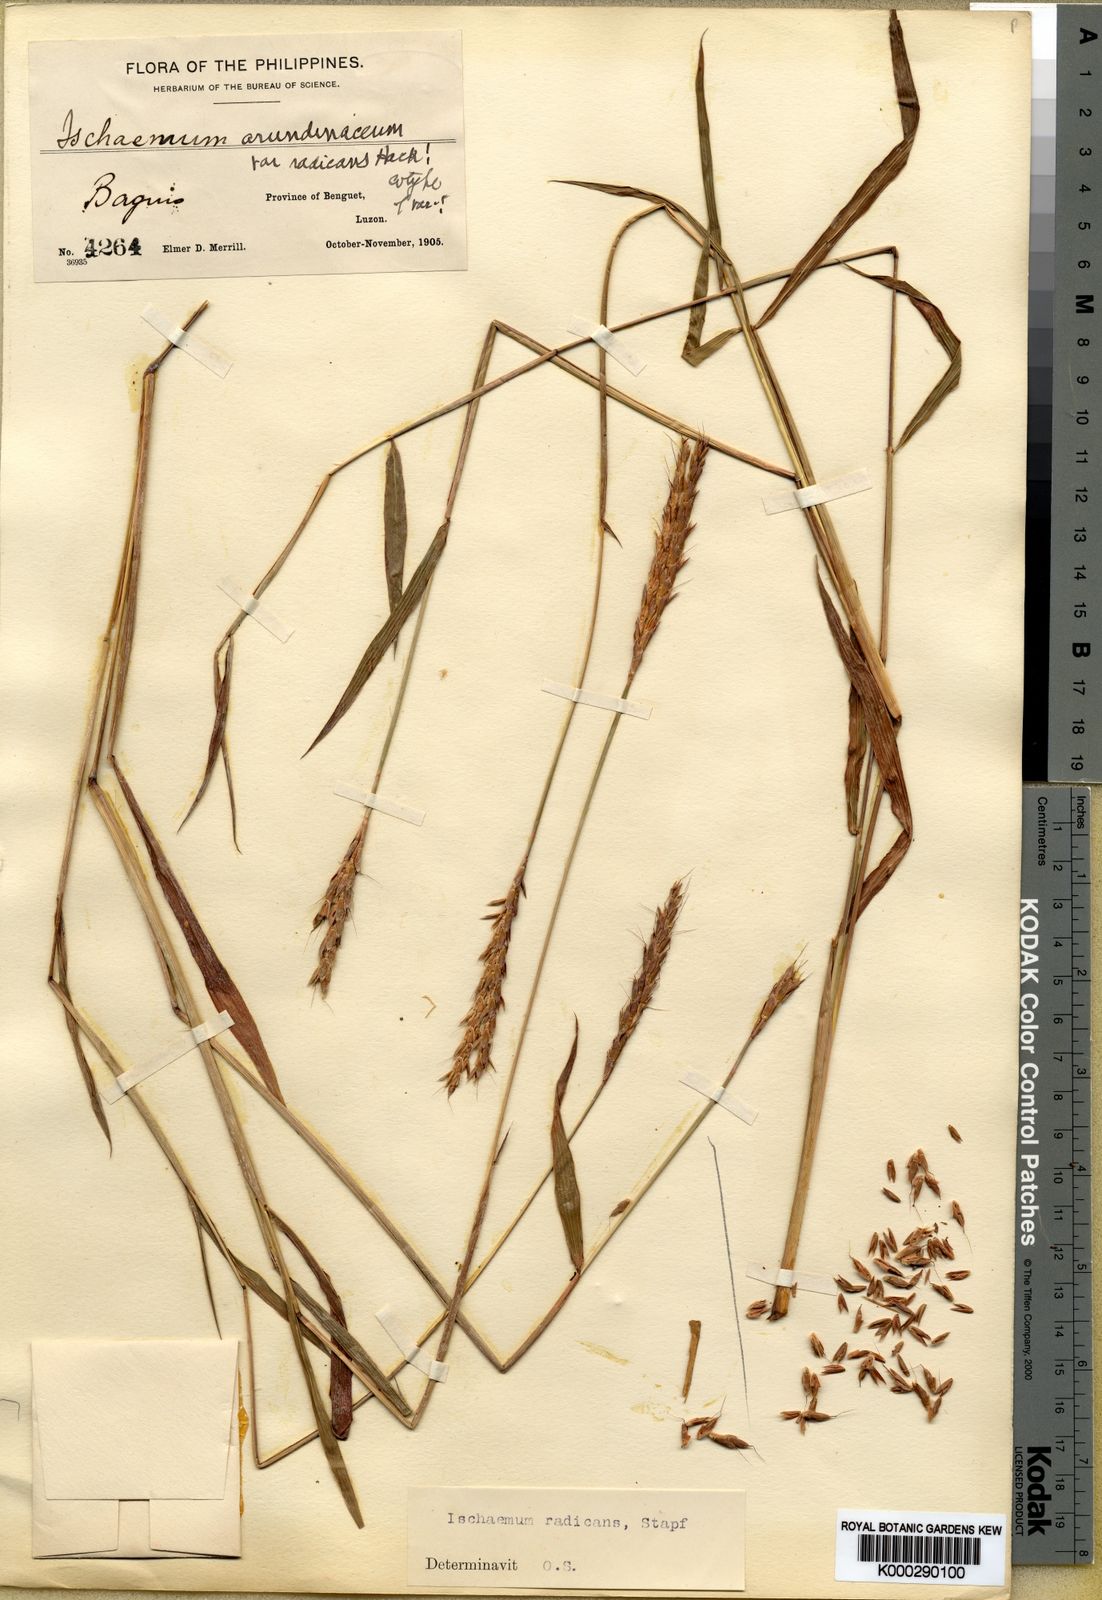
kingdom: Plantae
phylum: Tracheophyta
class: Liliopsida
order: Poales
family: Poaceae
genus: Ischaemum
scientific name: Ischaemum merrillii
